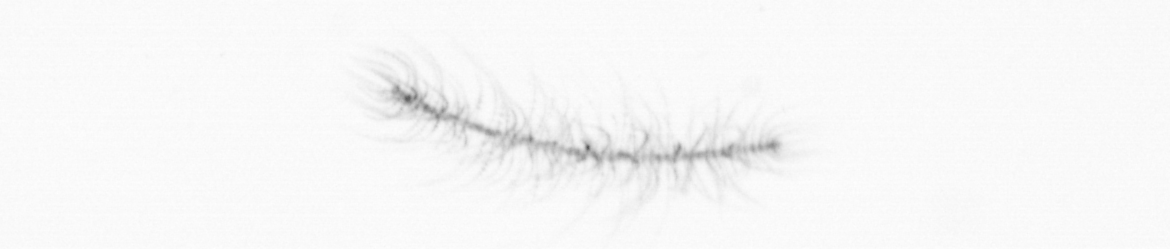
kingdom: Chromista
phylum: Ochrophyta
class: Bacillariophyceae
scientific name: Bacillariophyceae
